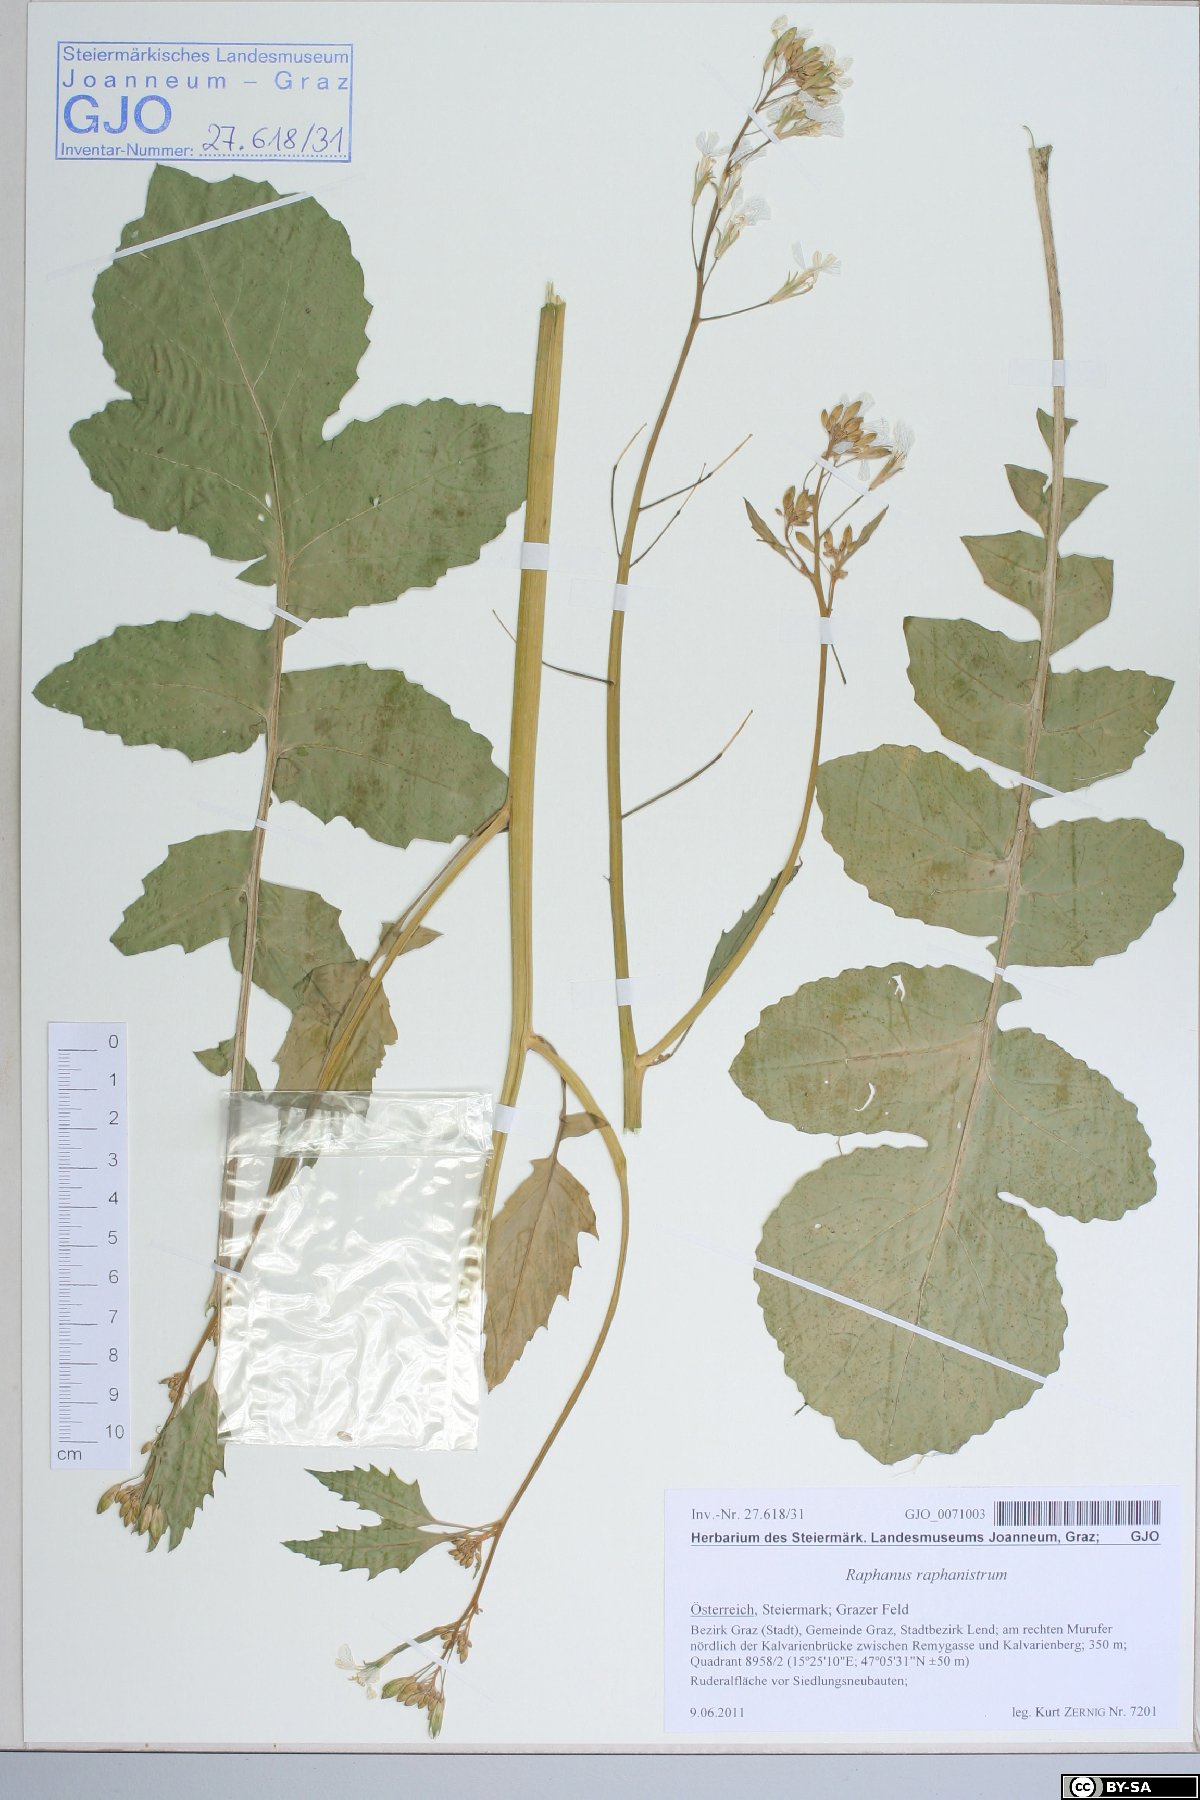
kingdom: Plantae
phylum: Tracheophyta
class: Magnoliopsida
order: Brassicales
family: Brassicaceae
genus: Raphanus
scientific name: Raphanus raphanistrum
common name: Wild radish
